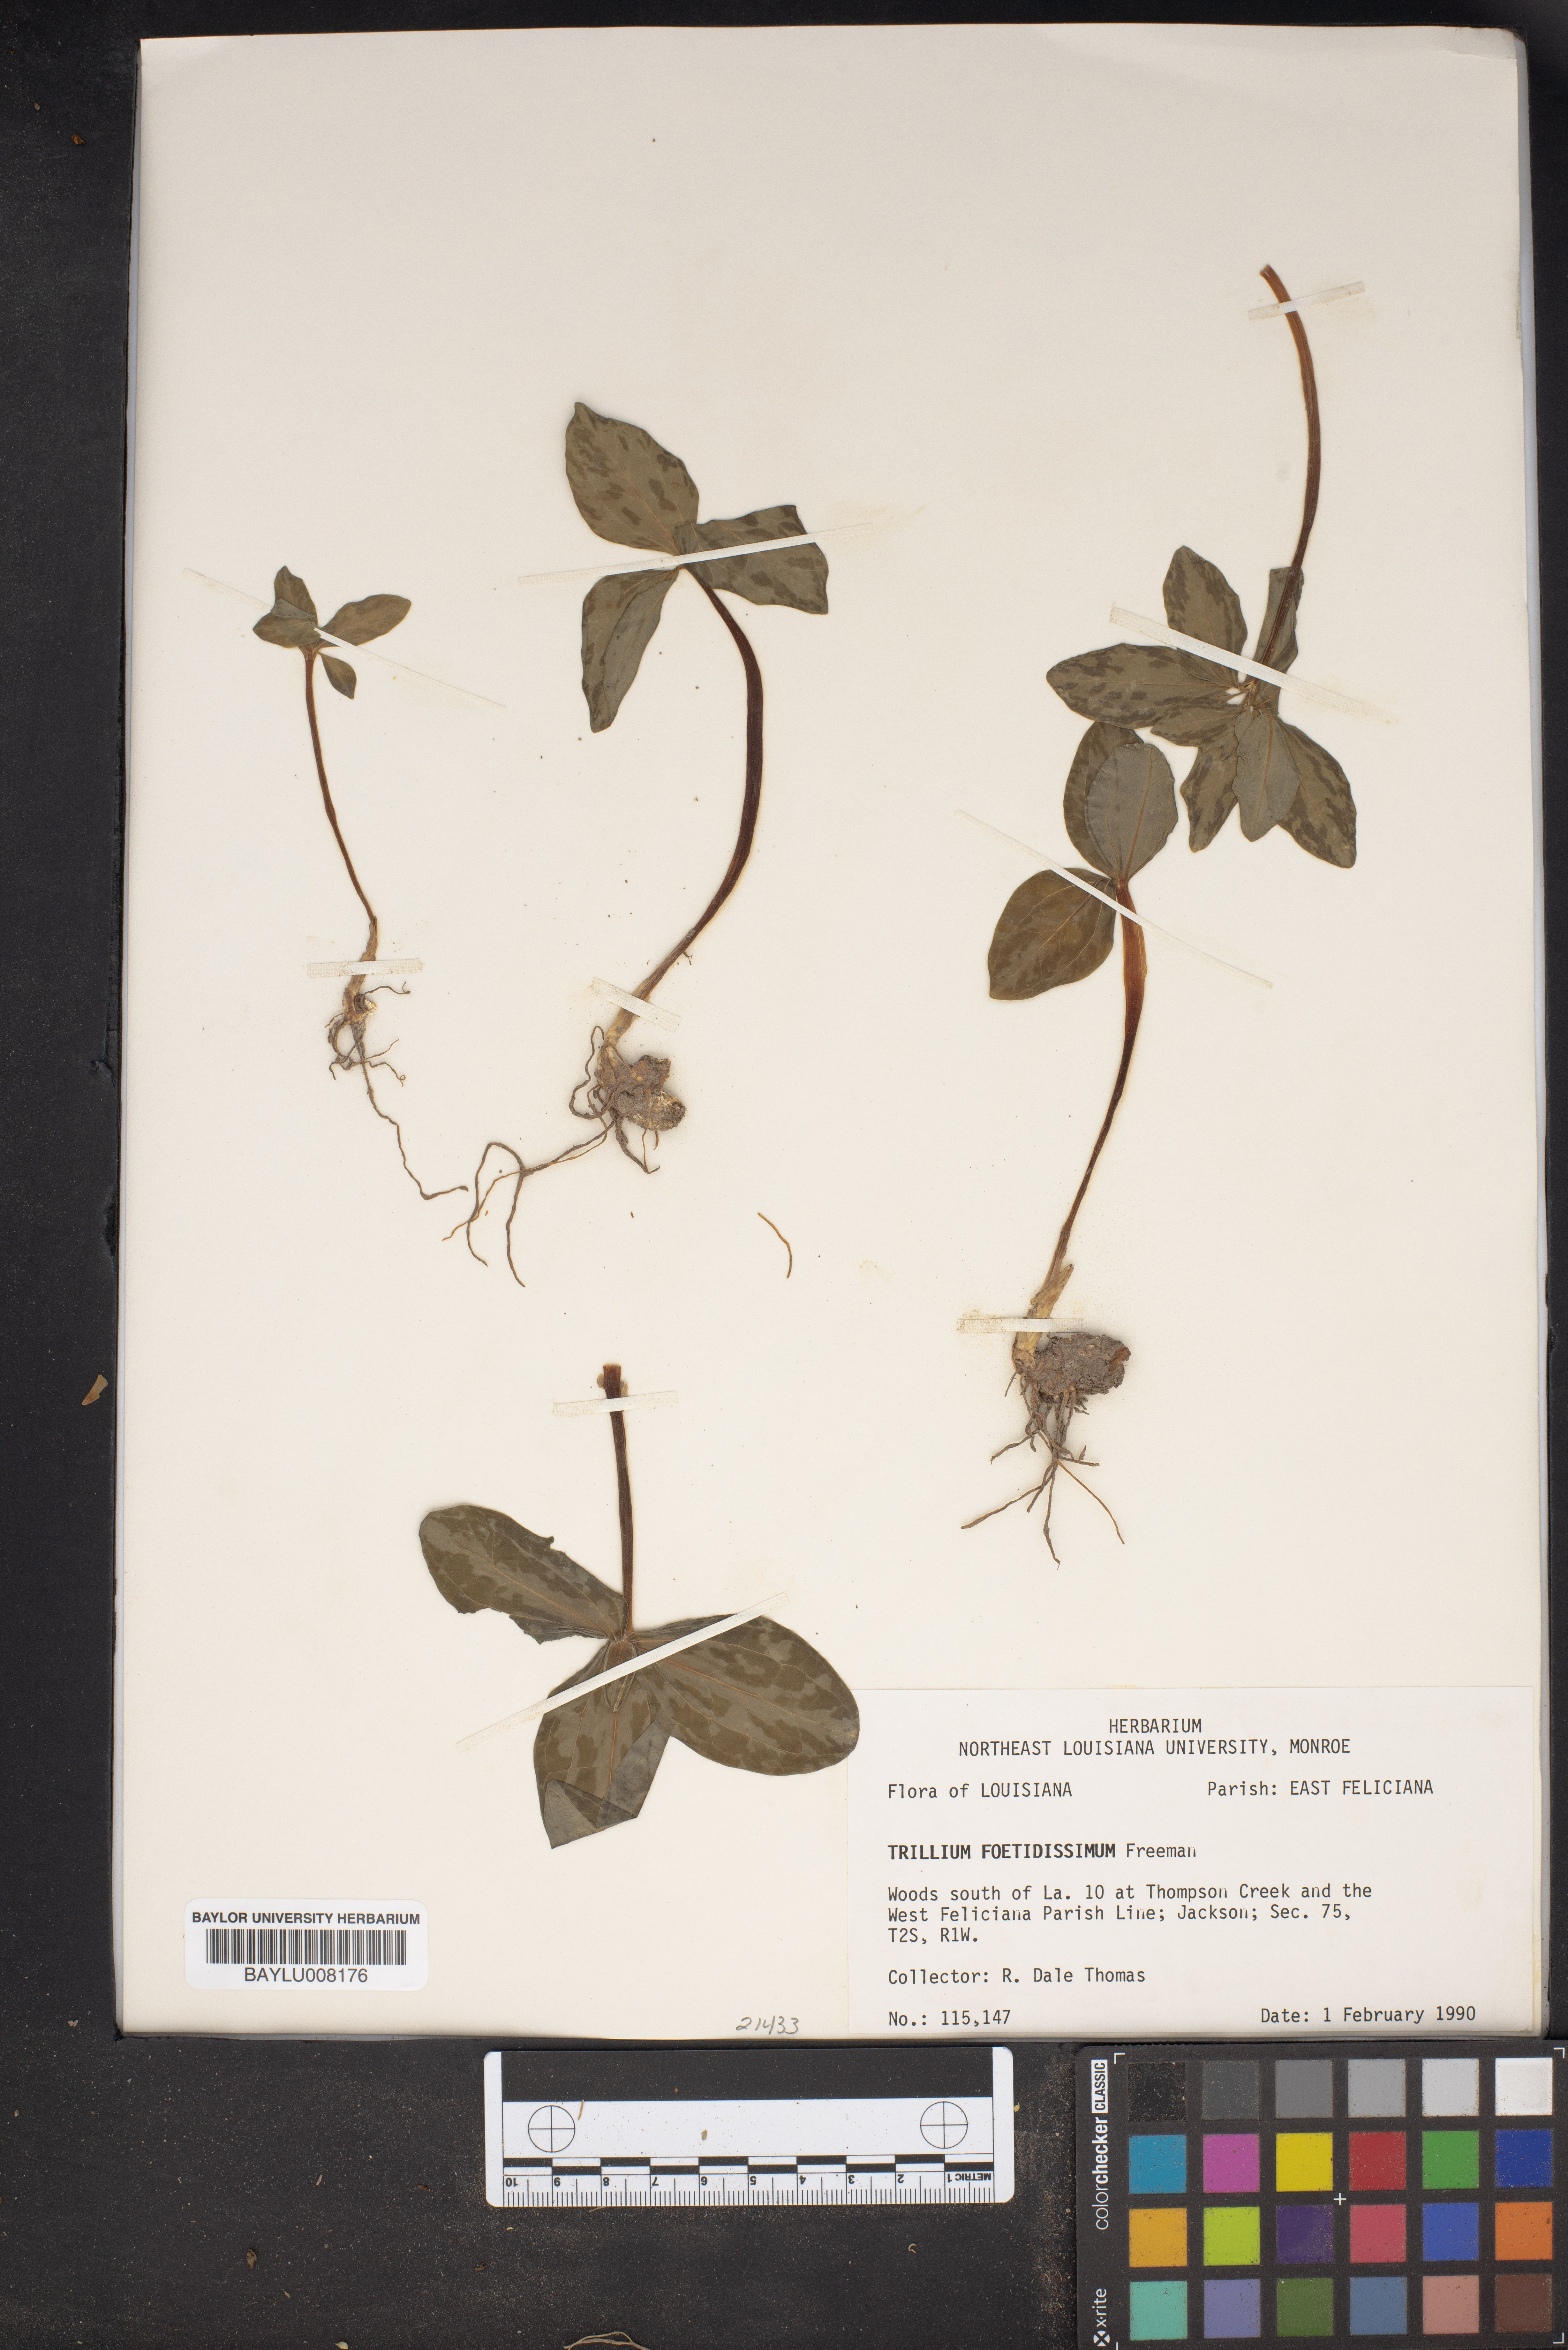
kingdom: Plantae
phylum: Tracheophyta
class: Liliopsida
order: Liliales
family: Melanthiaceae
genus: Trillium
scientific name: Trillium foetidissimum
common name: Mississippi river trillium
